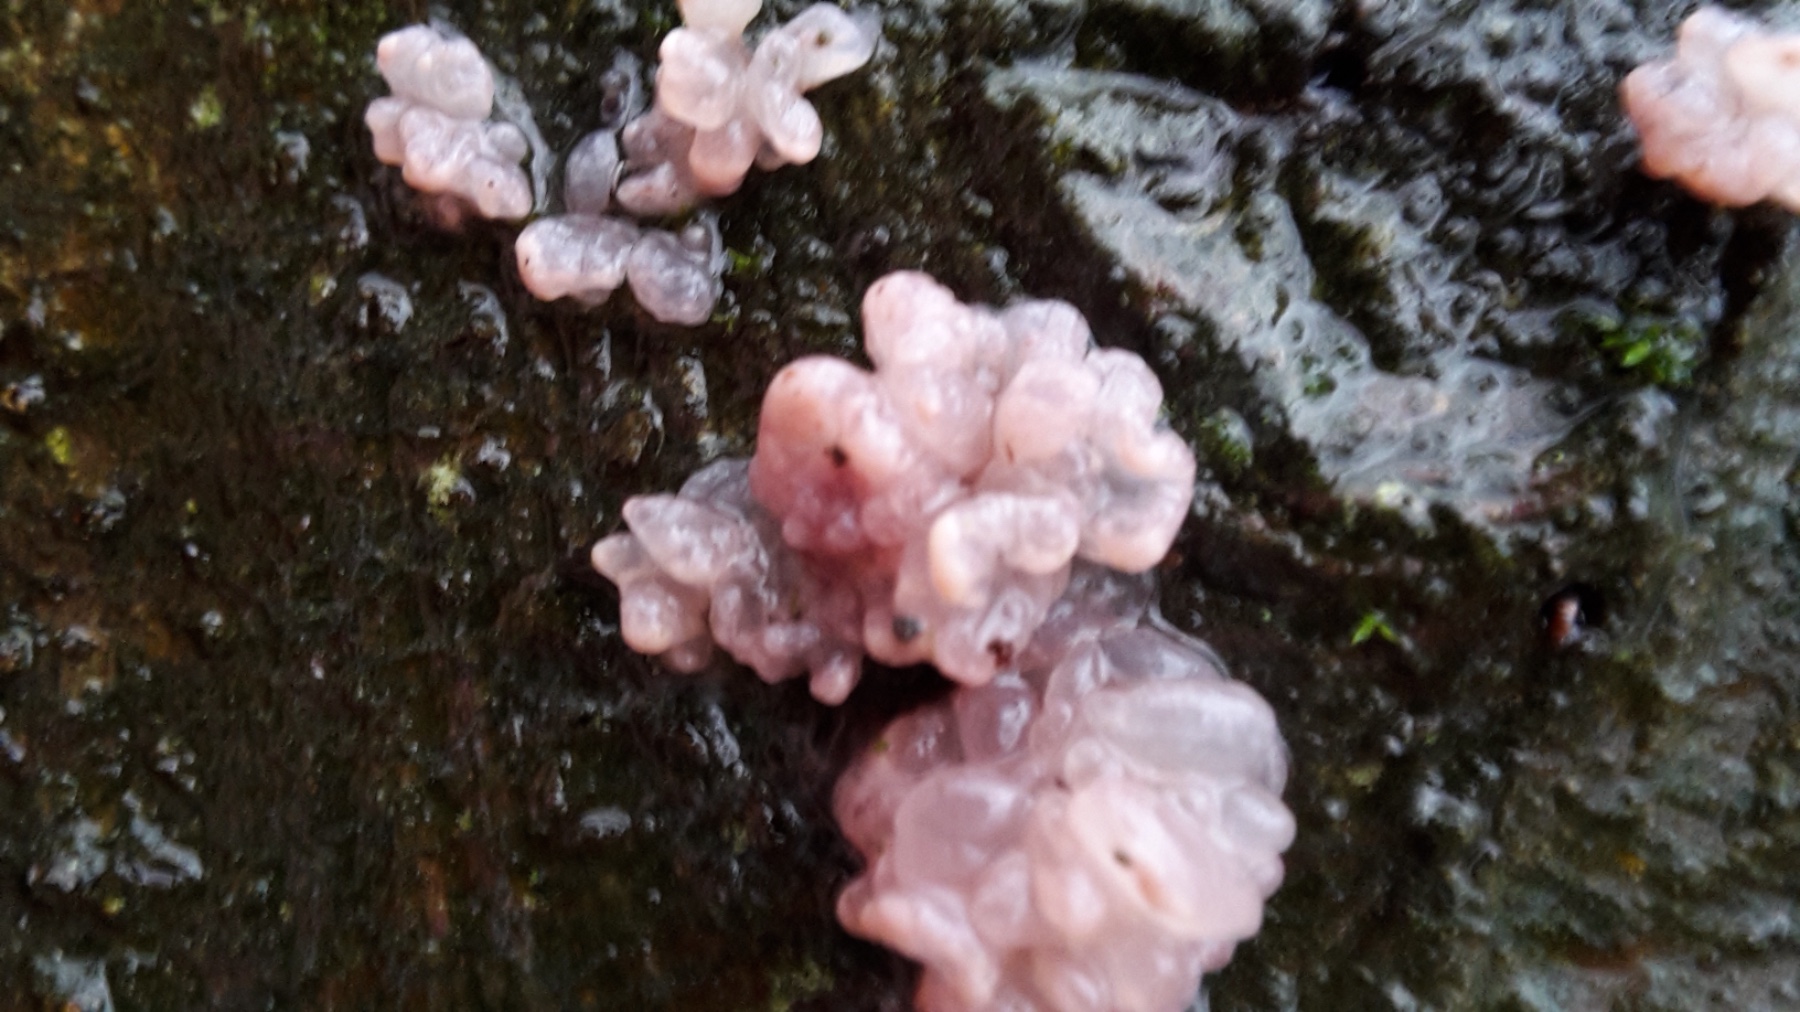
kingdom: Fungi
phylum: Ascomycota
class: Leotiomycetes
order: Helotiales
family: Gelatinodiscaceae
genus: Ascocoryne
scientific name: Ascocoryne sarcoides
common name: rødlilla sejskive
